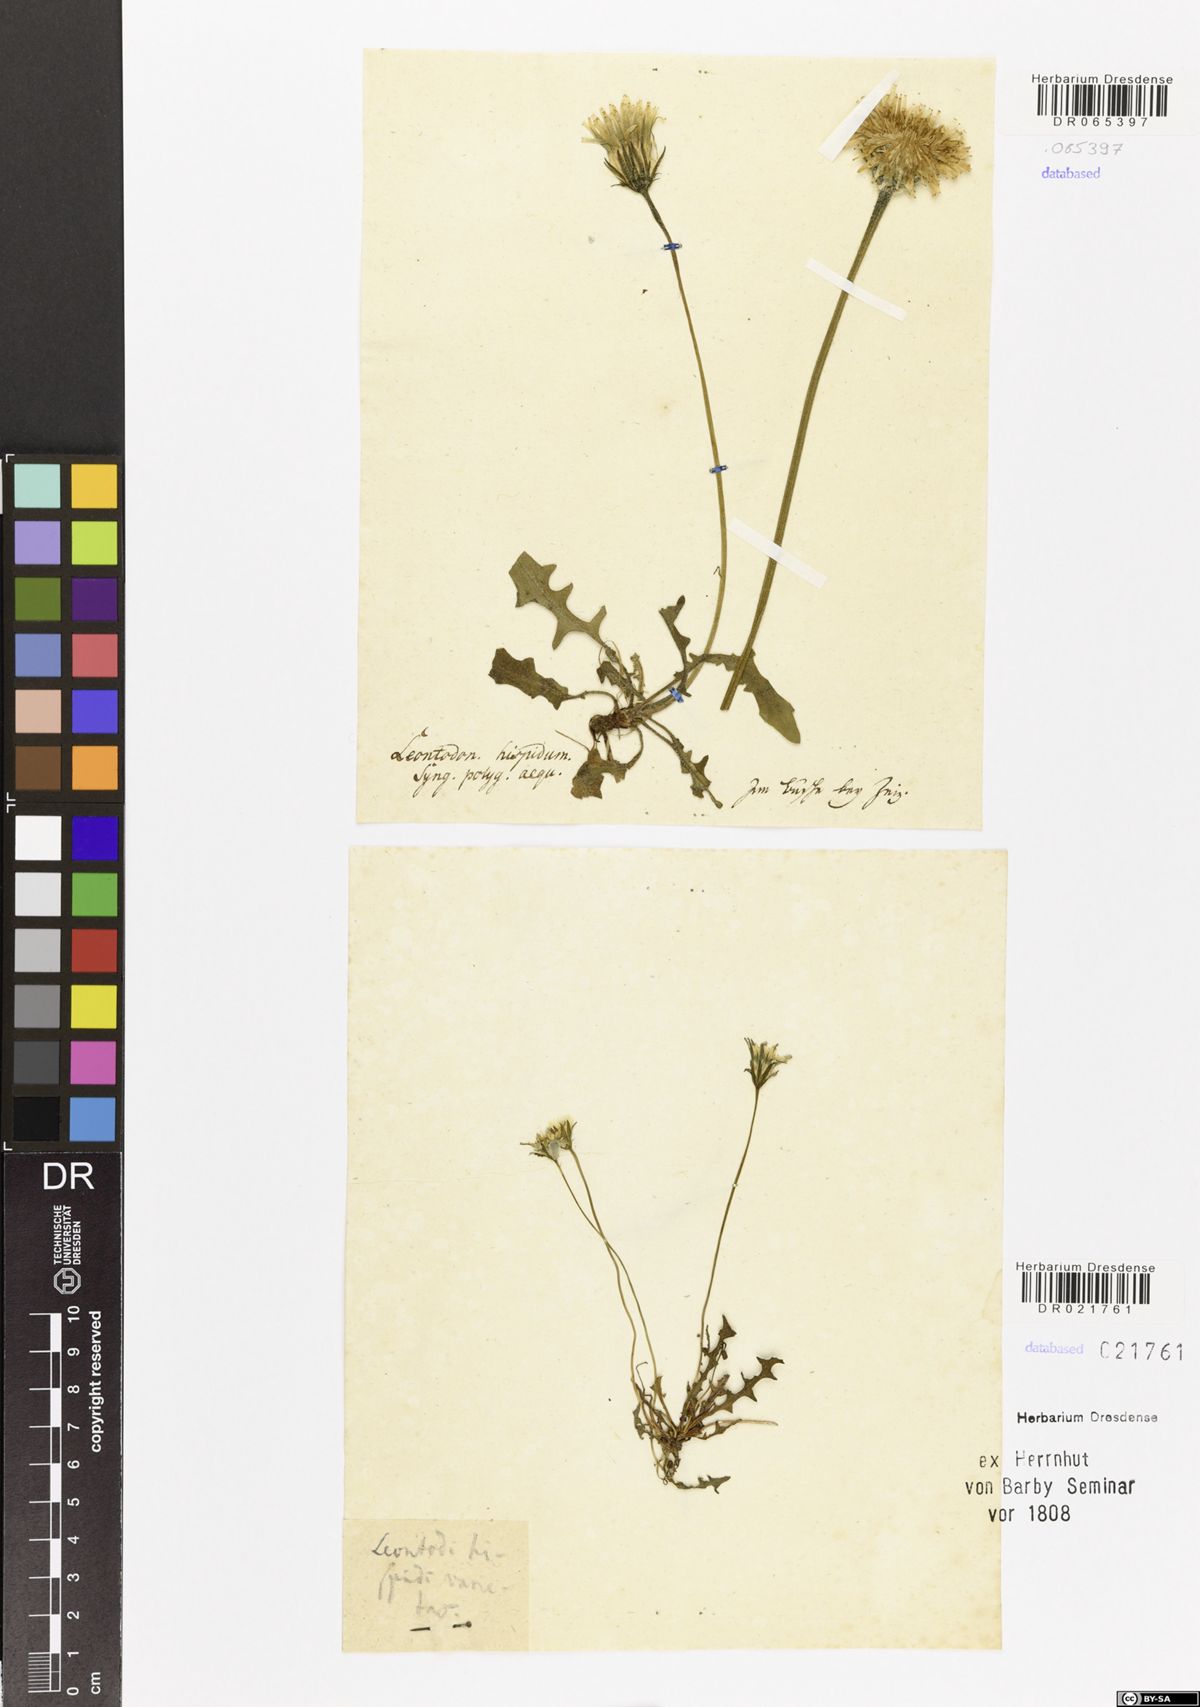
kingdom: Plantae
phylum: Tracheophyta
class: Magnoliopsida
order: Asterales
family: Asteraceae
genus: Thrincia
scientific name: Thrincia saxatilis
